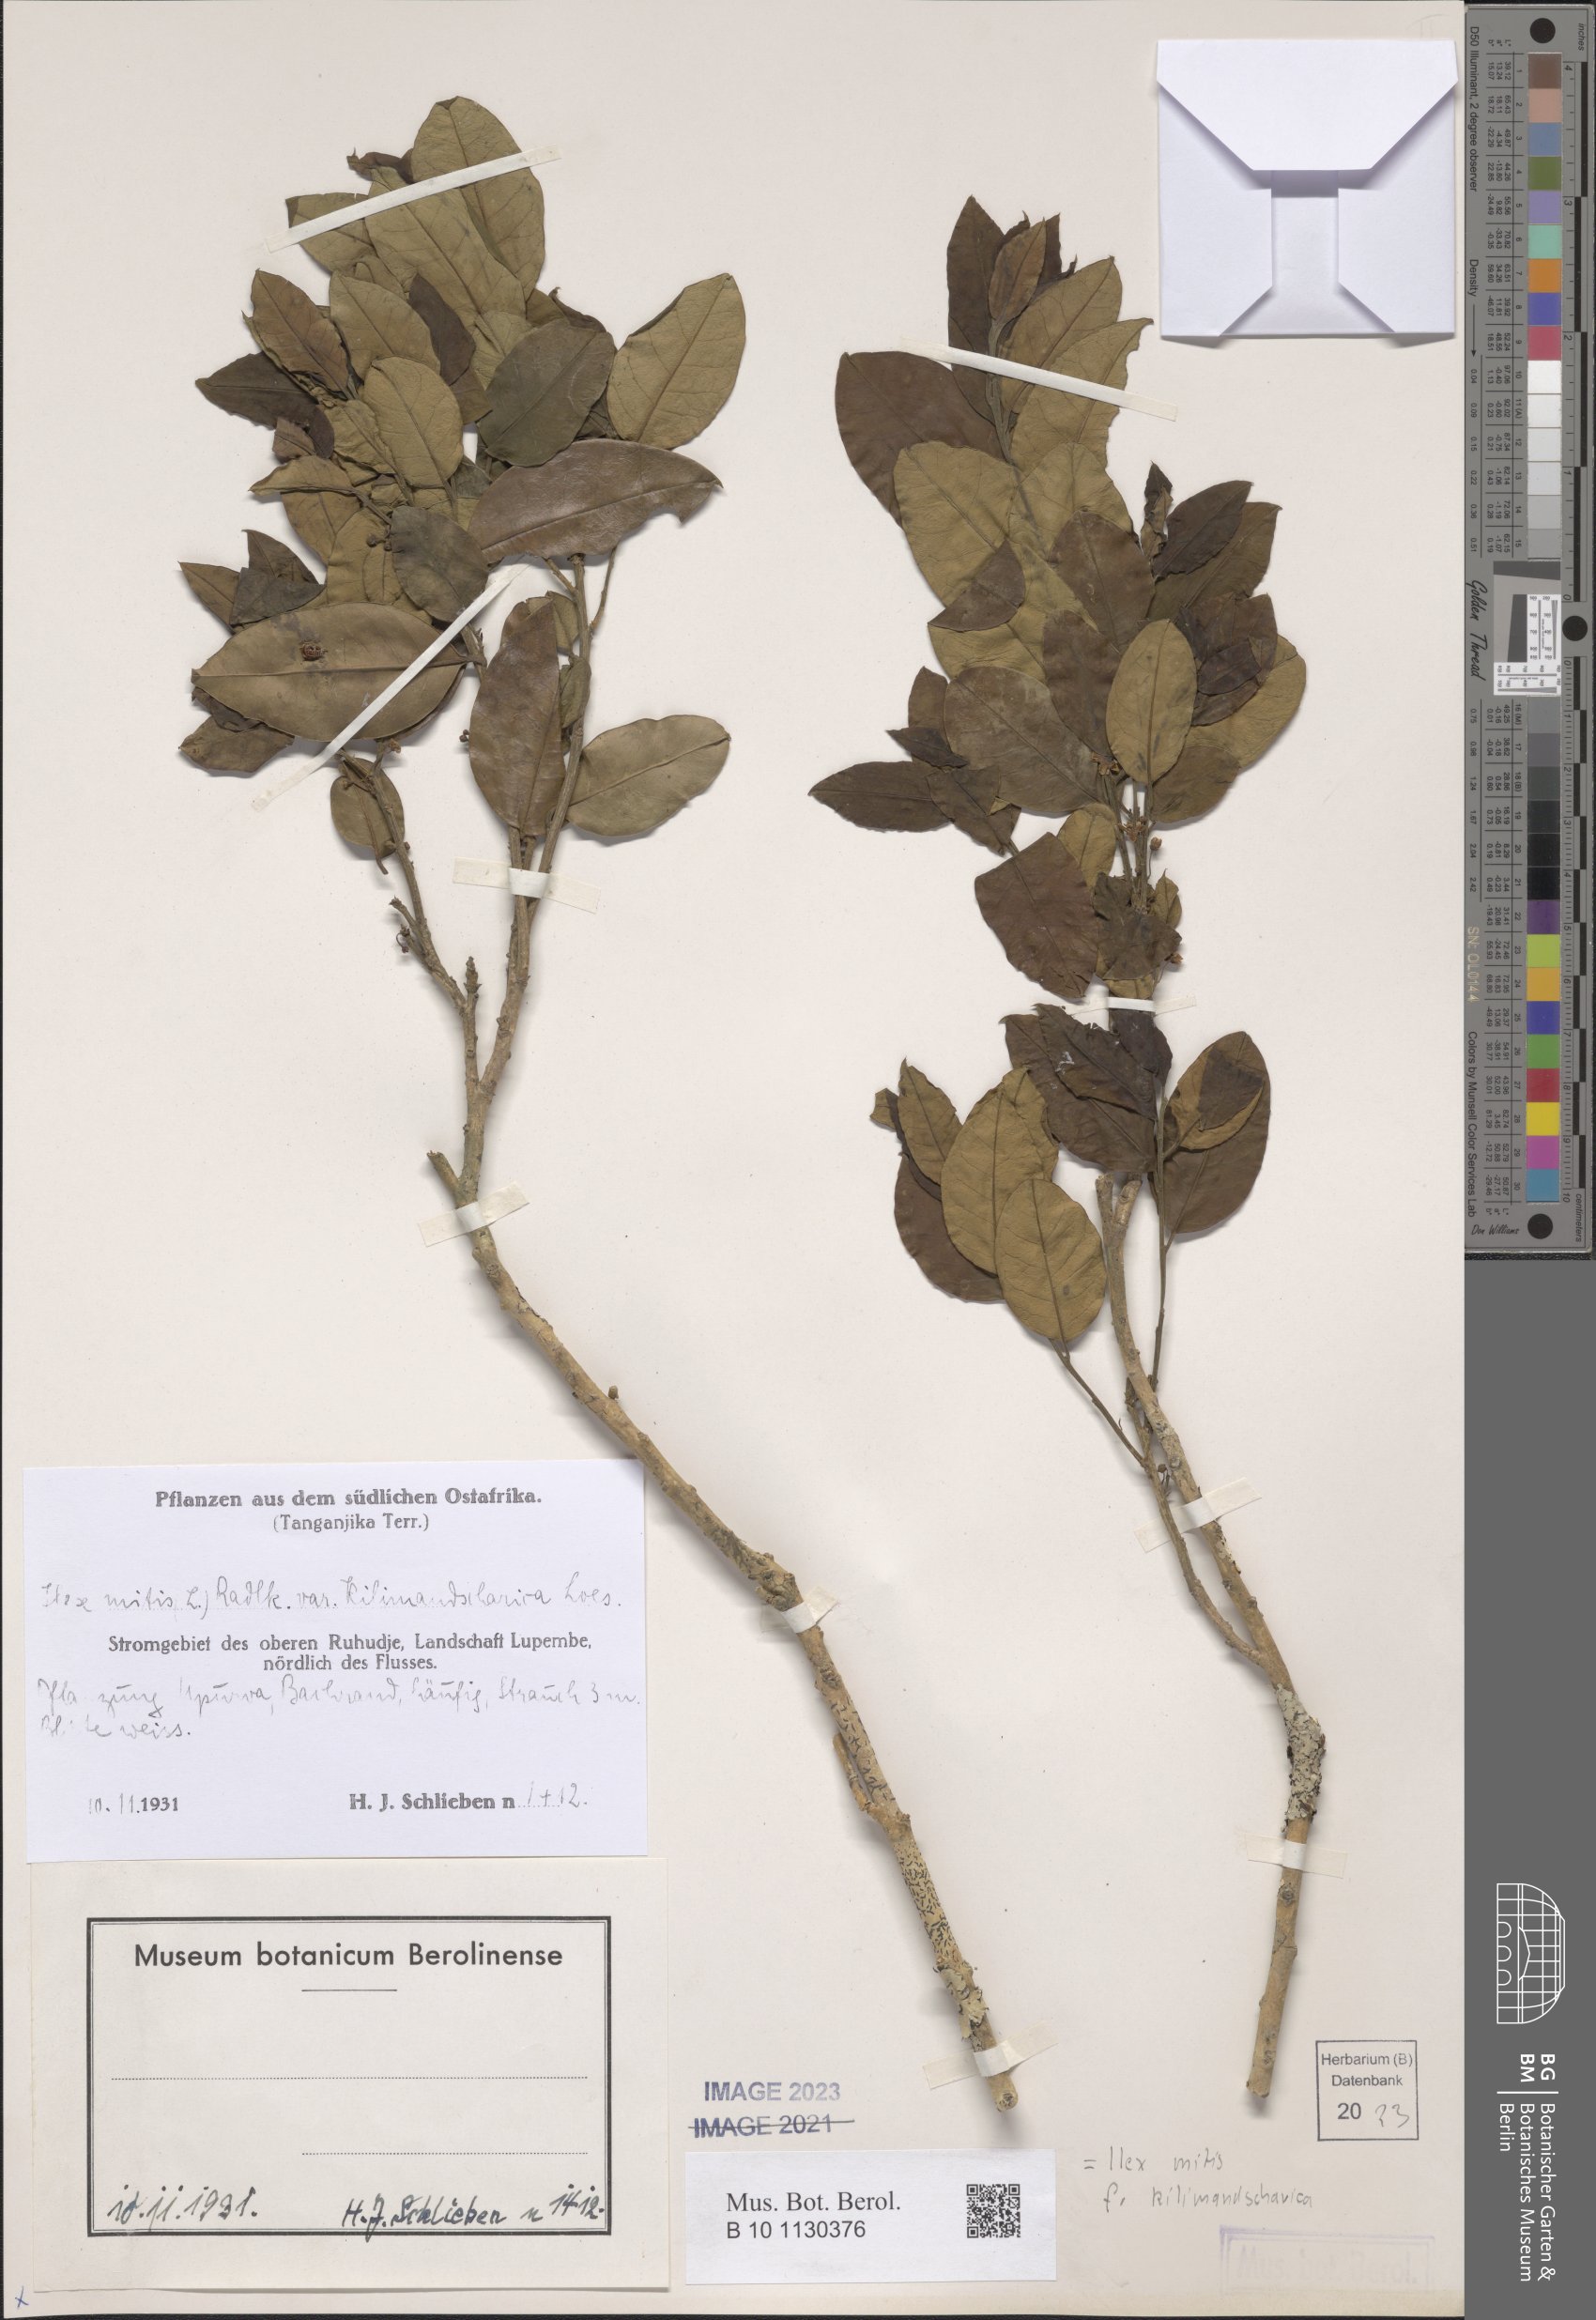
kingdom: Plantae
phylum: Tracheophyta
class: Magnoliopsida
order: Aquifoliales
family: Aquifoliaceae
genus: Ilex
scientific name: Ilex mitis
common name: African holly
